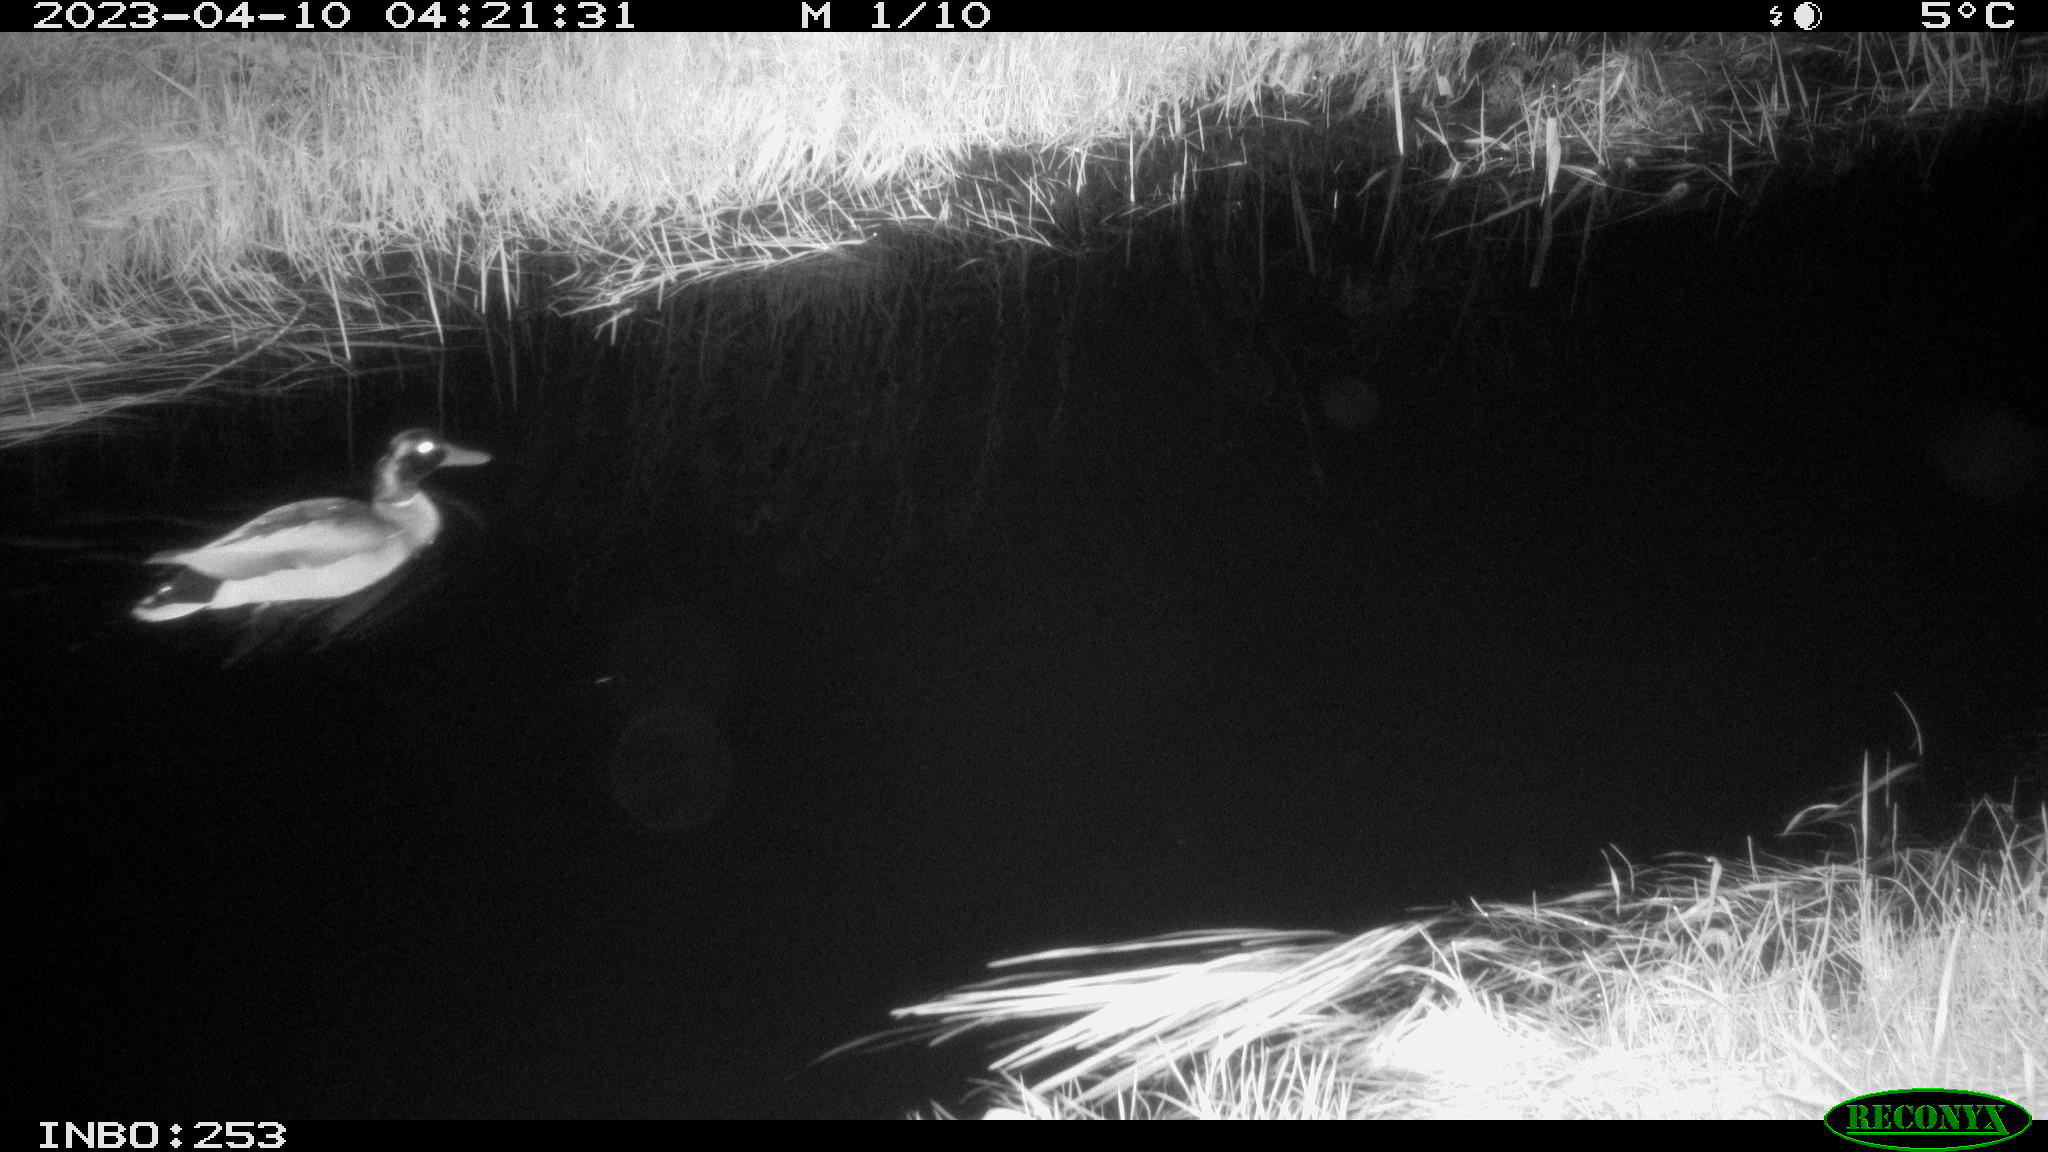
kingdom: Animalia
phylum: Chordata
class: Aves
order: Anseriformes
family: Anatidae
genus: Anas
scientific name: Anas
